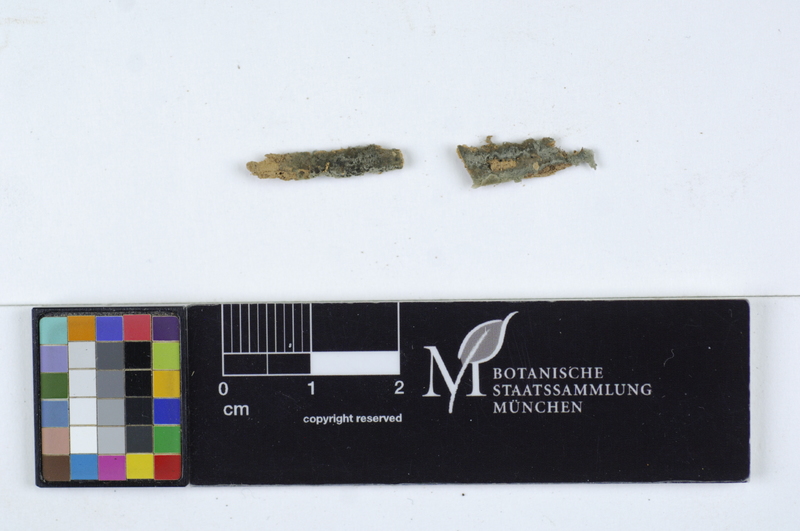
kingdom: Fungi
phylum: Basidiomycota
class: Agaricomycetes
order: Atheliales
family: Atheliaceae
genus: Byssocorticium
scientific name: Byssocorticium efibulatum
